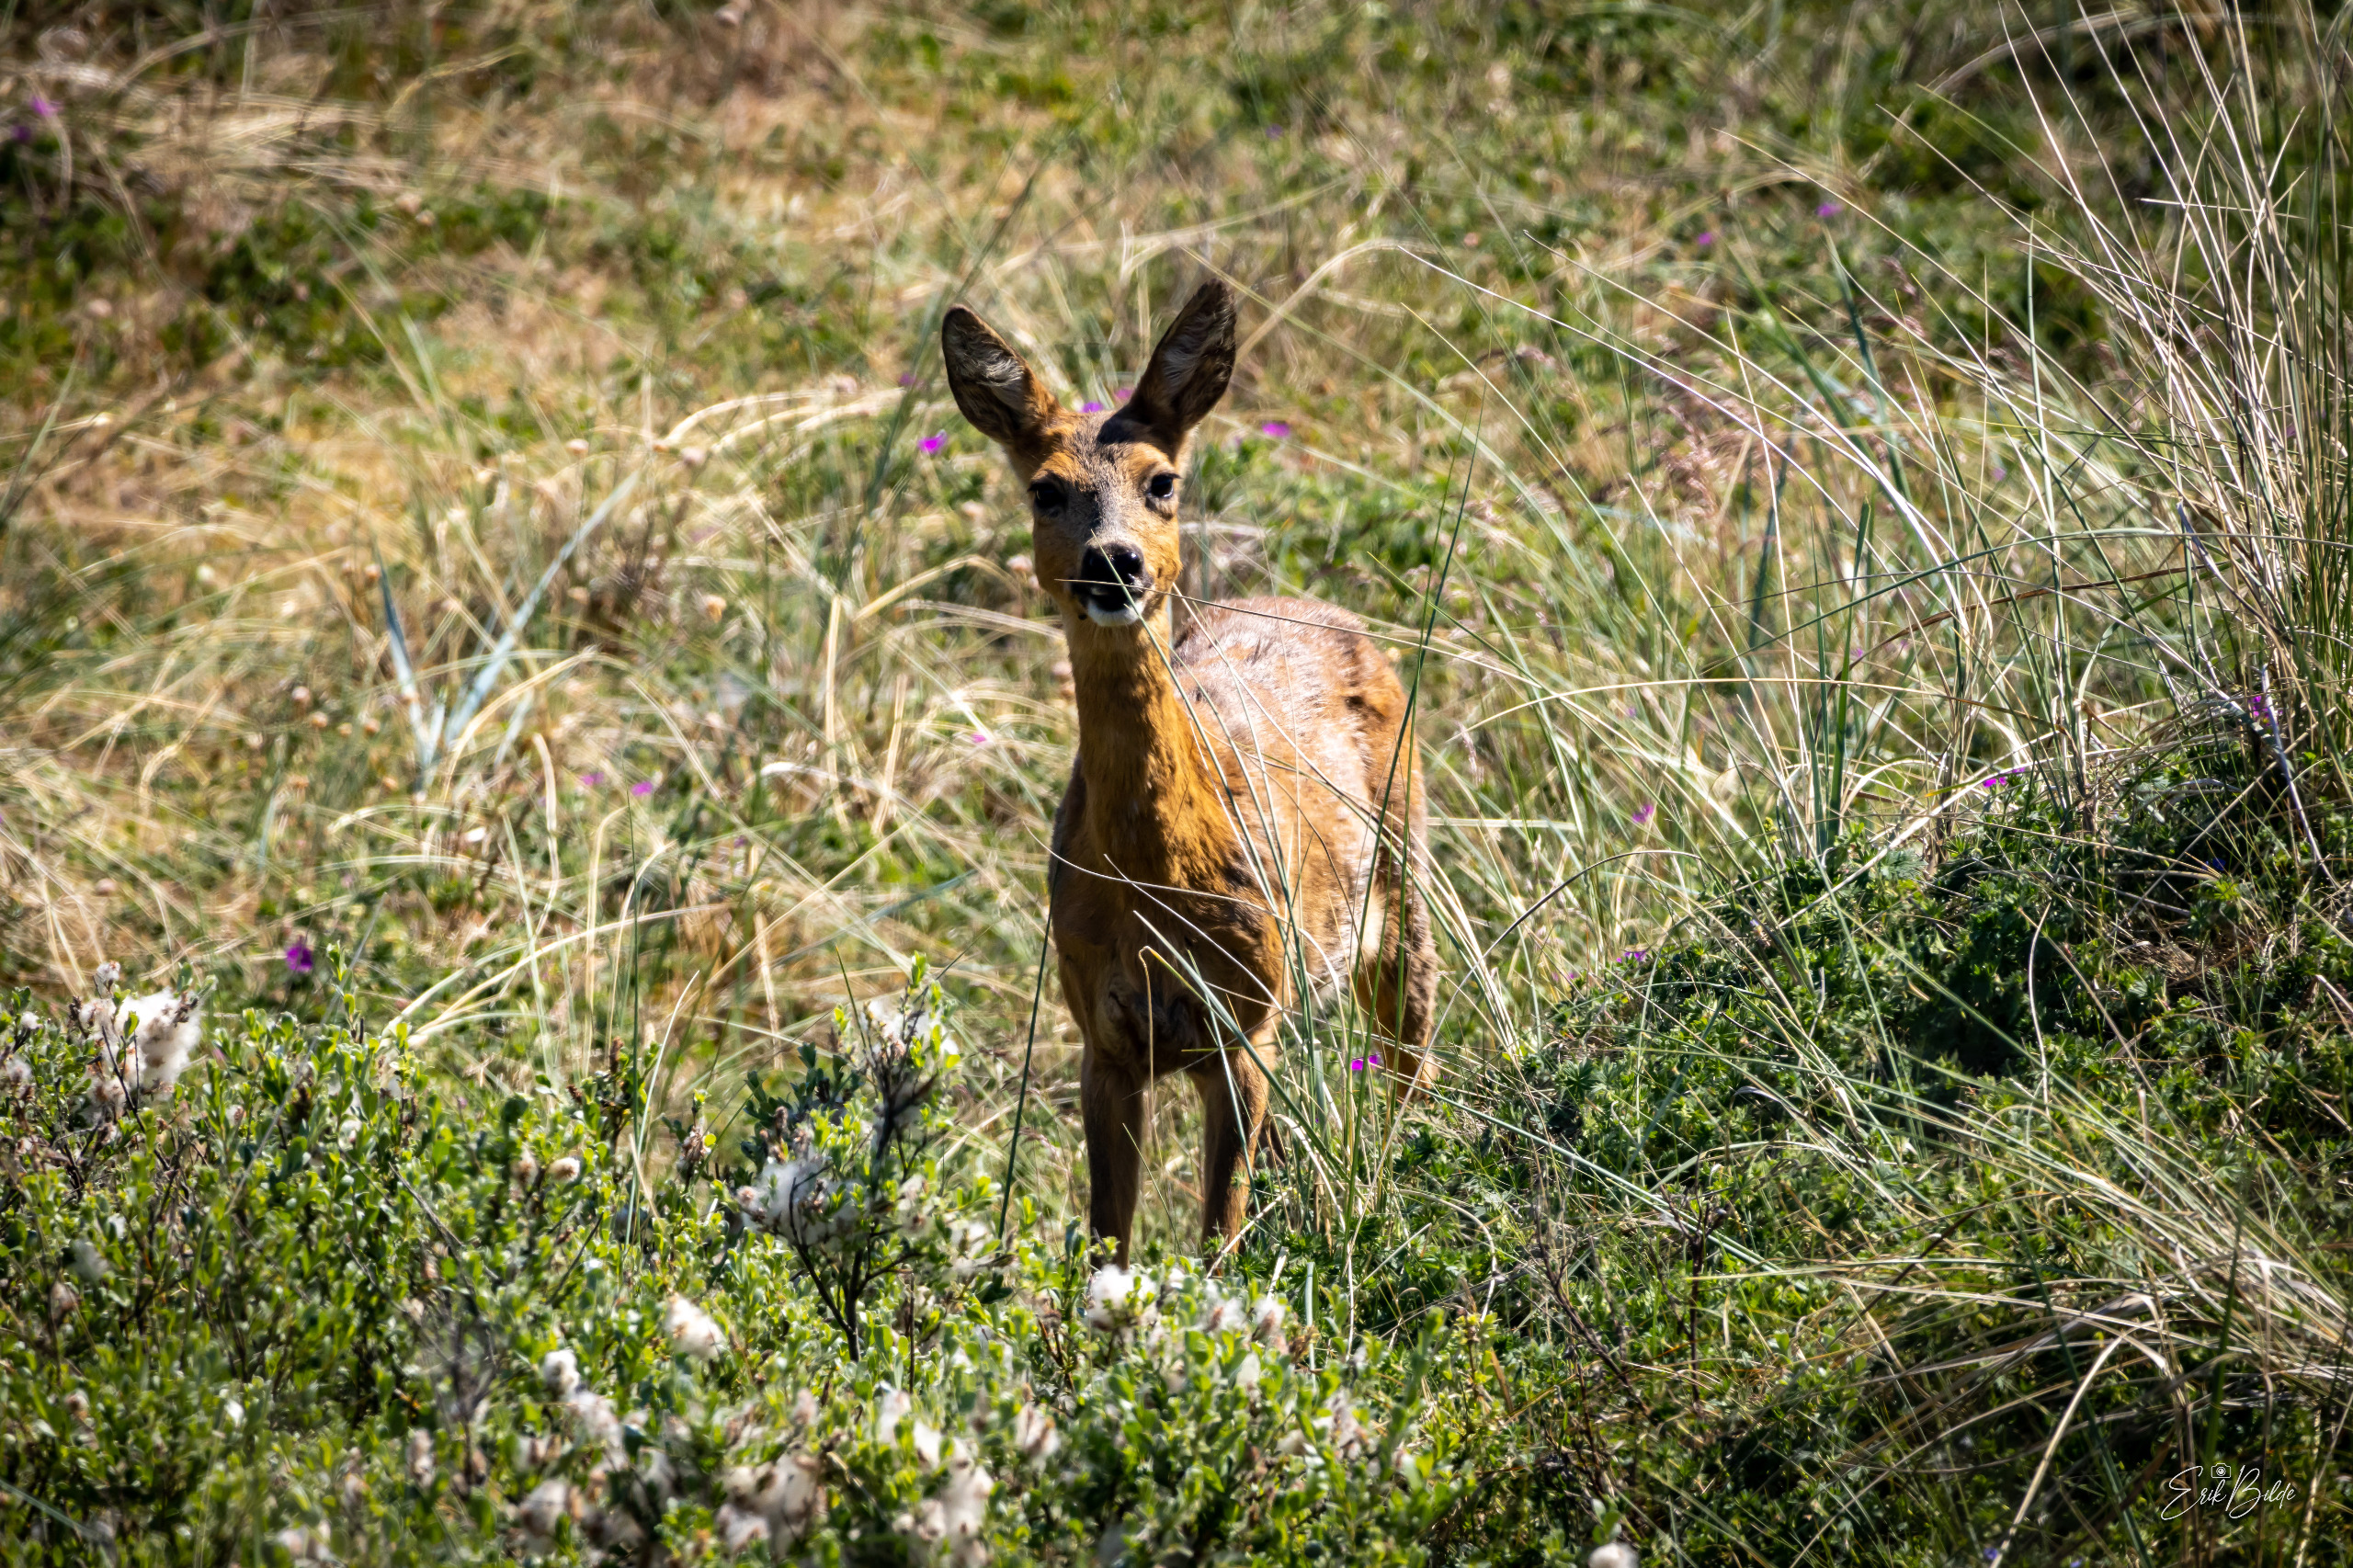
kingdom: Animalia
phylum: Chordata
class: Mammalia
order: Artiodactyla
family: Cervidae
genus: Capreolus
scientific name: Capreolus capreolus
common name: Rådyr
